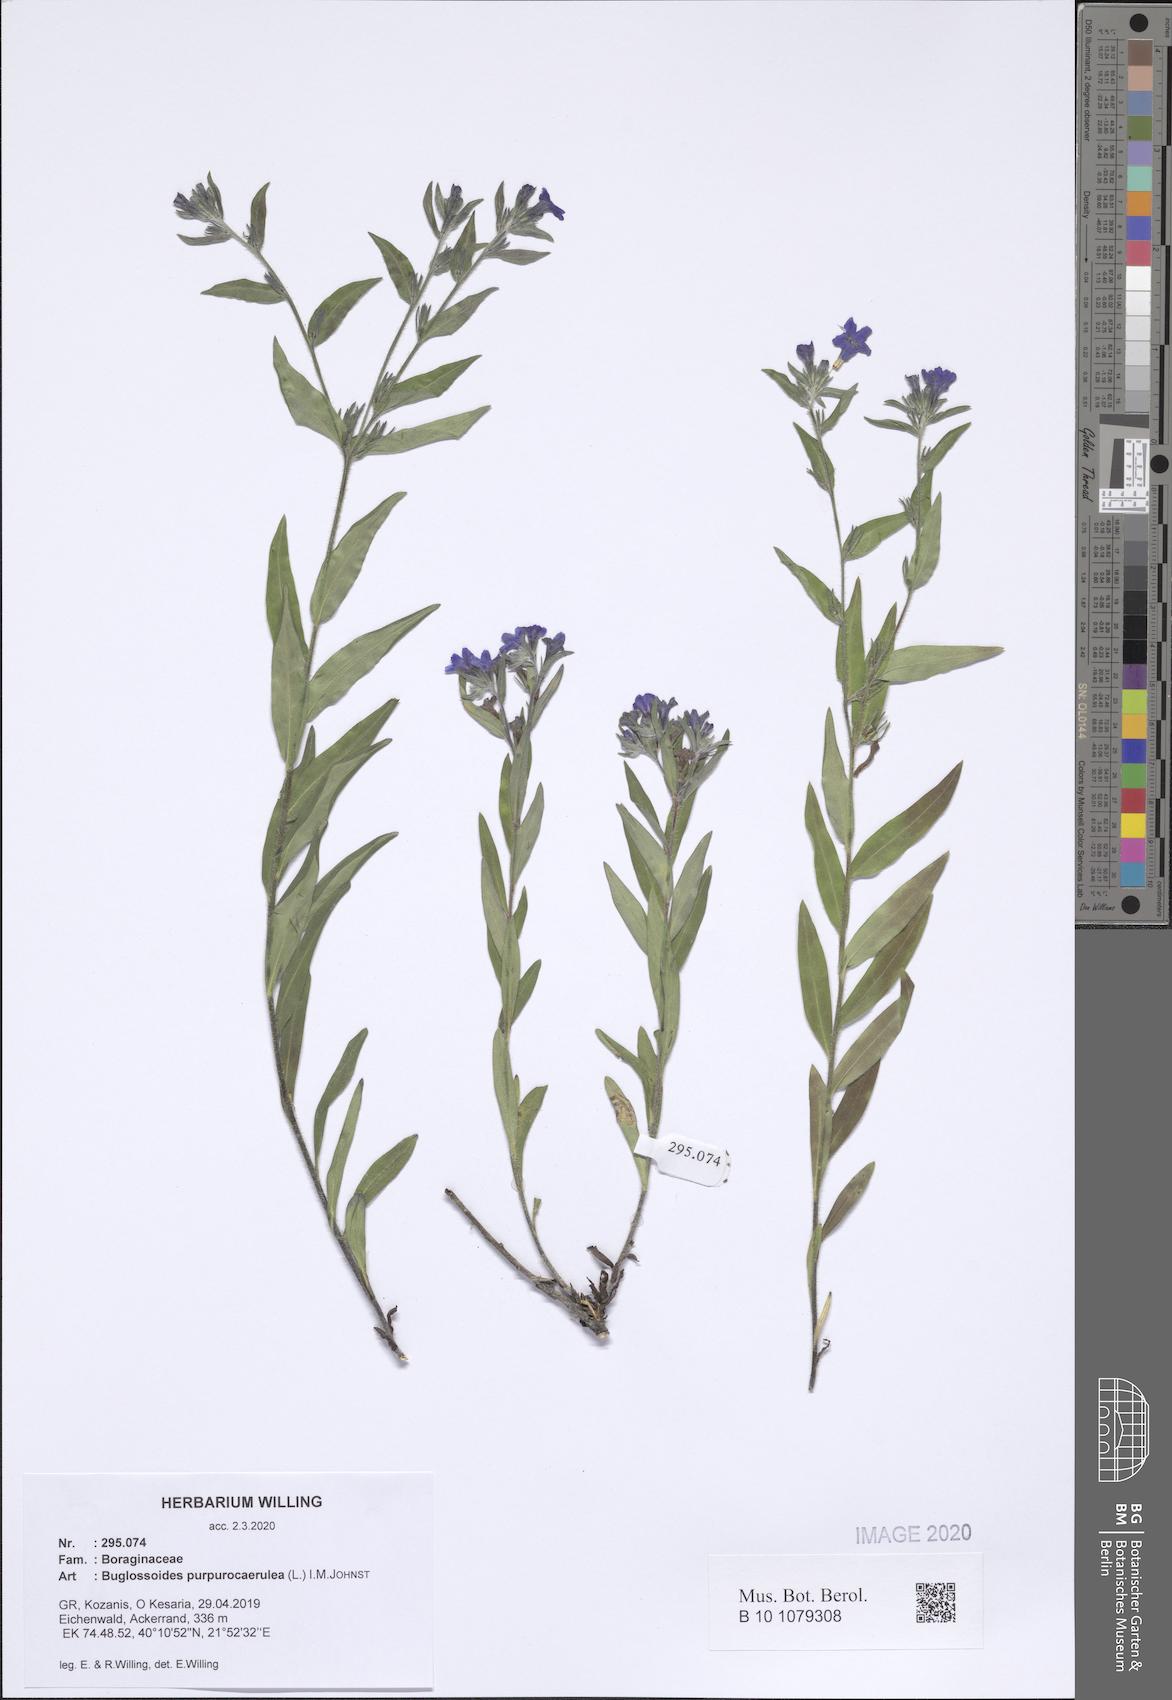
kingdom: Plantae
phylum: Tracheophyta
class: Magnoliopsida
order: Boraginales
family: Boraginaceae
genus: Aegonychon
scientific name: Aegonychon purpurocaeruleum
